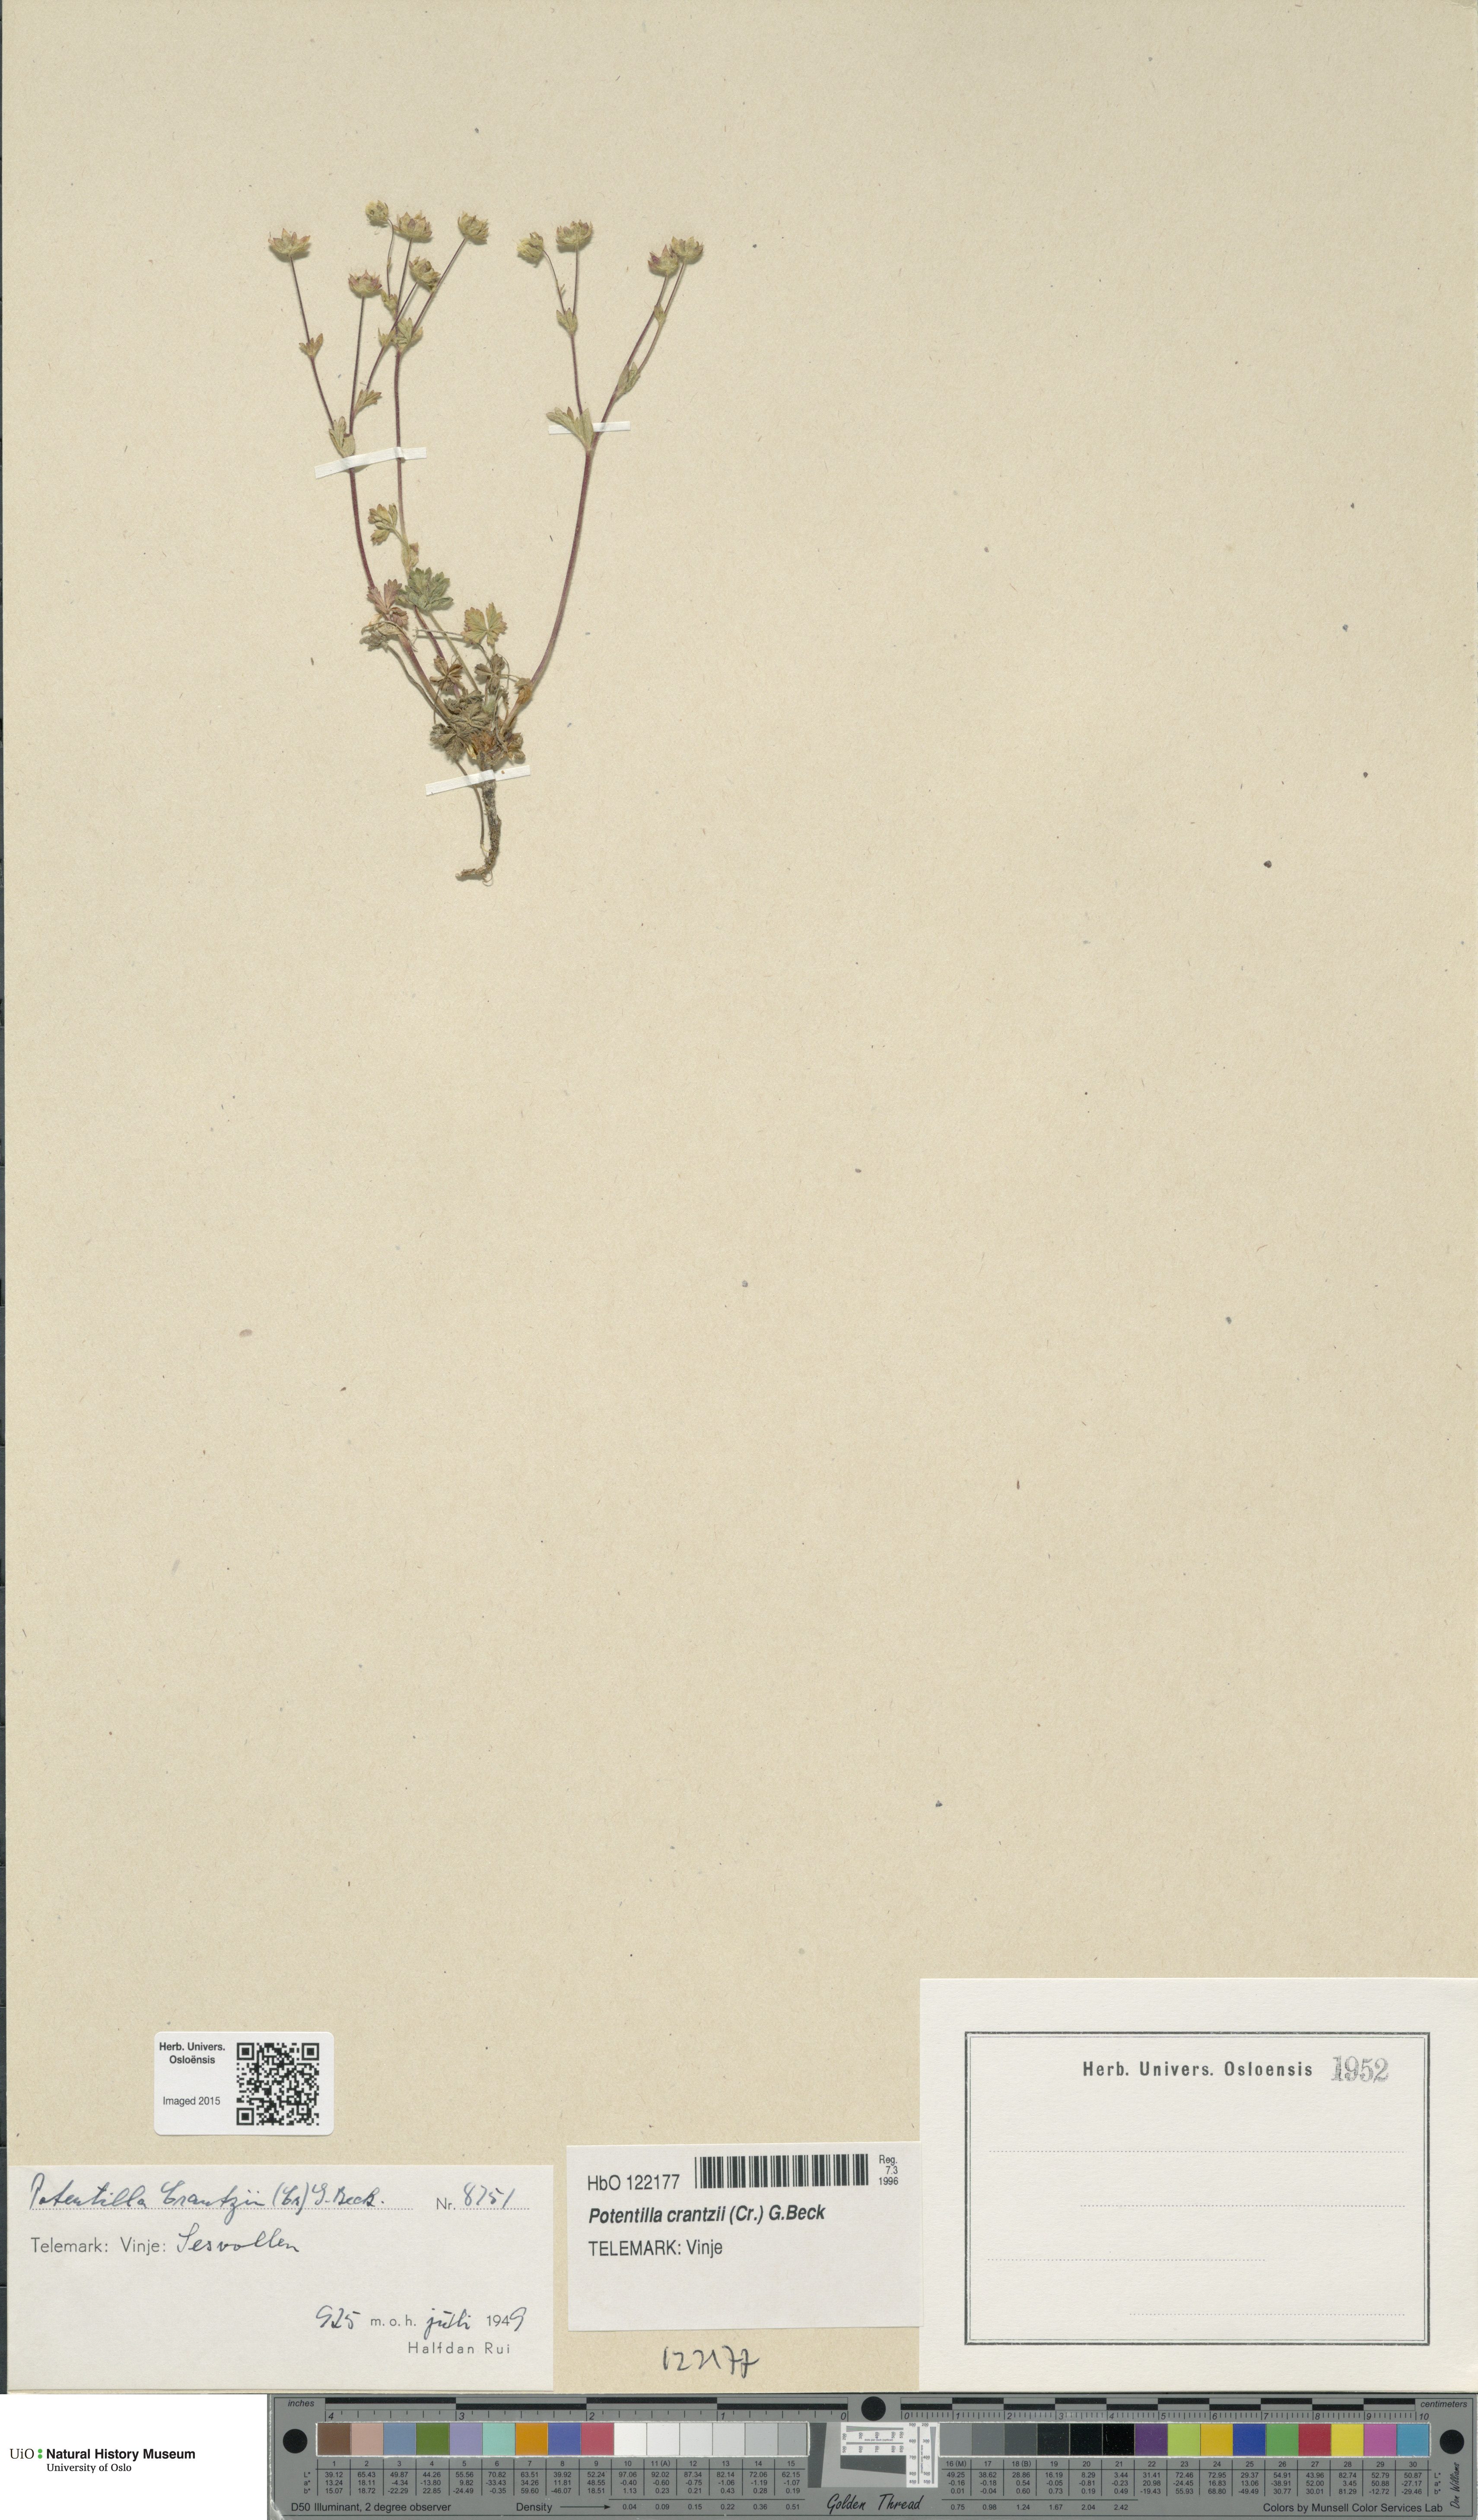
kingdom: Plantae
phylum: Tracheophyta
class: Magnoliopsida
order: Rosales
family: Rosaceae
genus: Potentilla
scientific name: Potentilla crantzii
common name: Alpine cinquefoil
